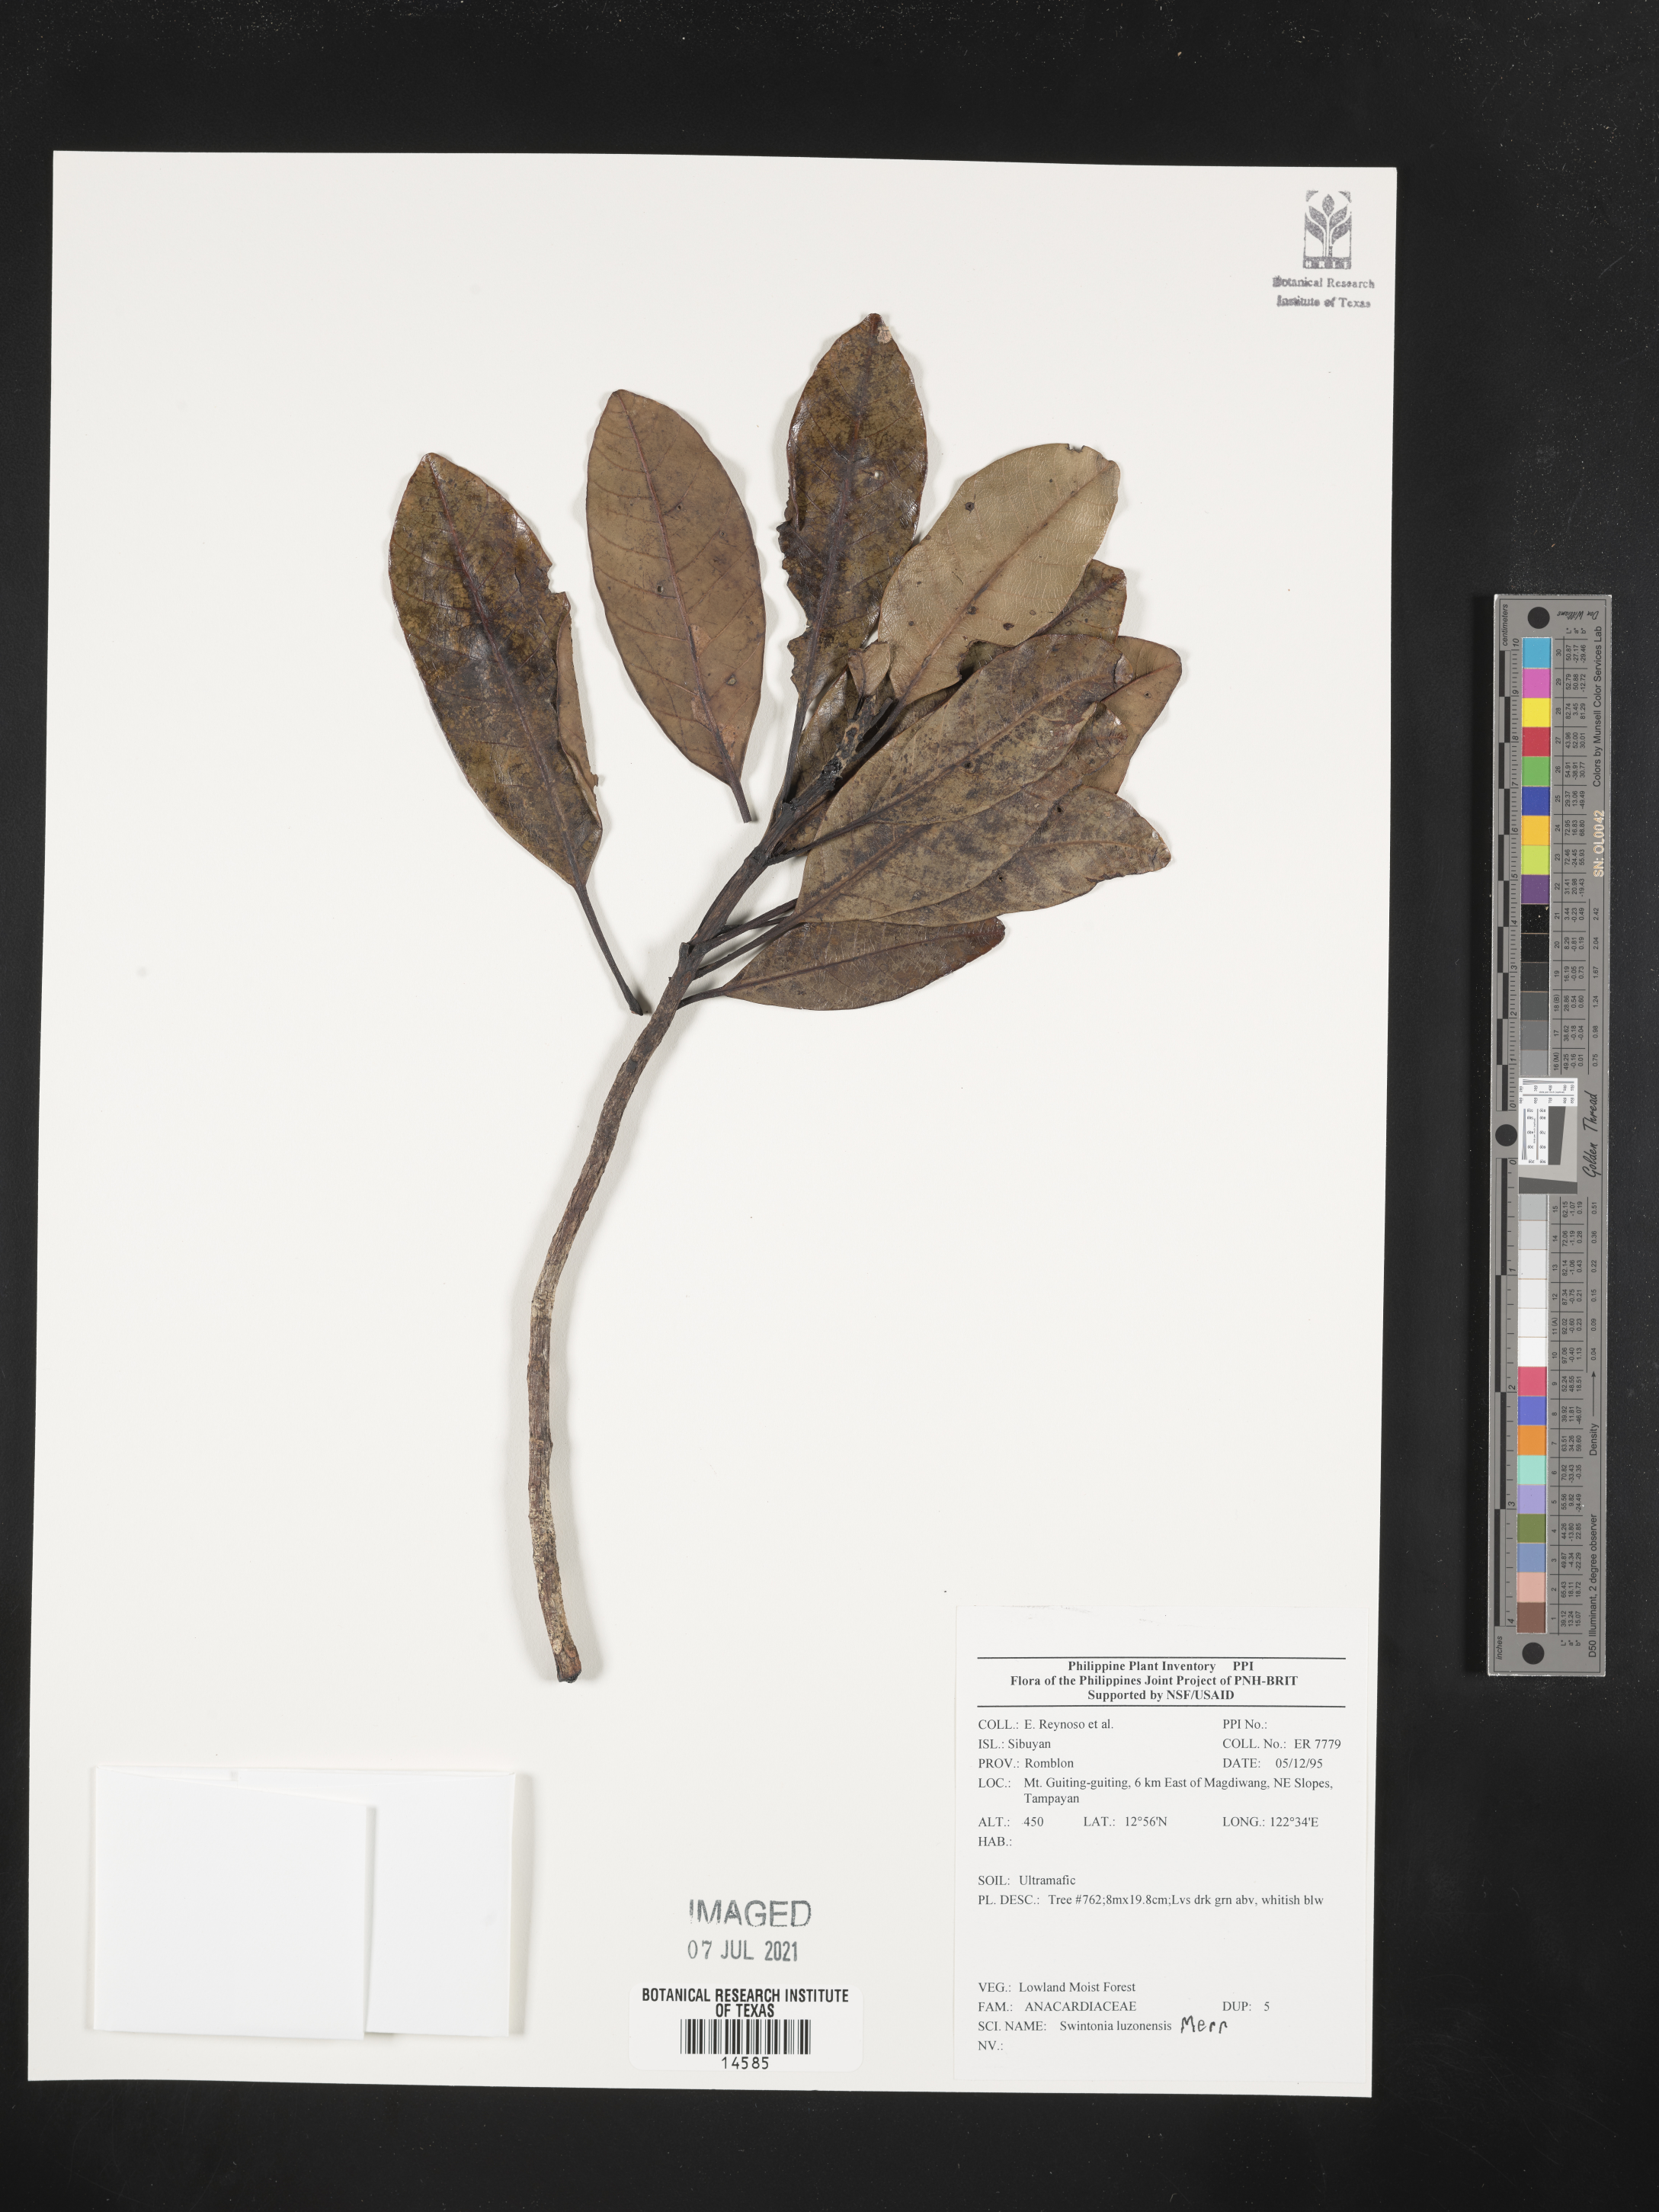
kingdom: Plantae
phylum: Tracheophyta
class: Magnoliopsida
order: Sapindales
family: Anacardiaceae
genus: Swintonia
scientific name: Swintonia acuta
